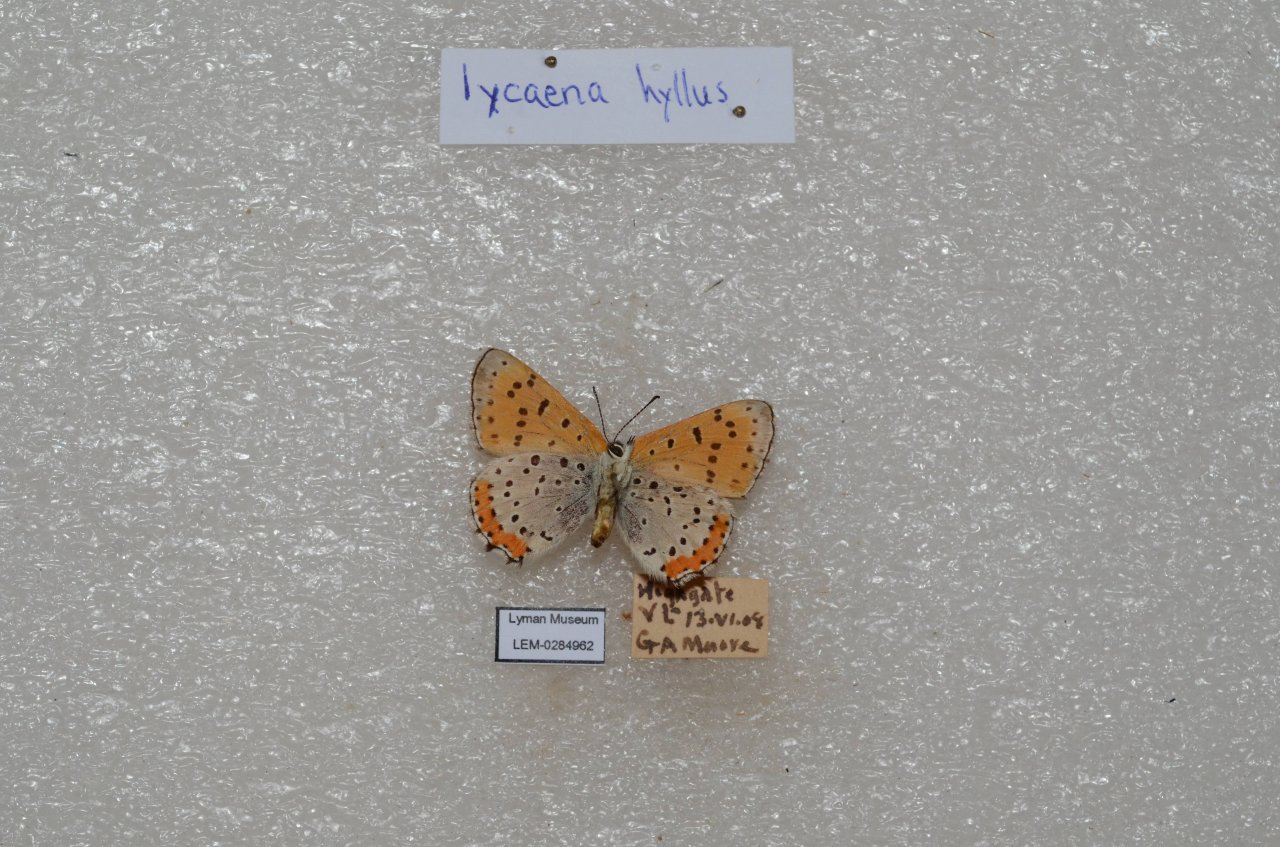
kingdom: Animalia
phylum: Arthropoda
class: Insecta
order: Lepidoptera
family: Sesiidae
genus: Sesia
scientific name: Sesia Lycaena hyllus
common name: Bronze Copper
